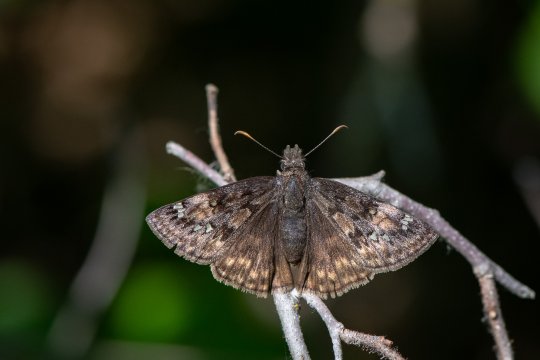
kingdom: Animalia
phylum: Arthropoda
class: Insecta
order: Lepidoptera
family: Hesperiidae
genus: Gesta
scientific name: Gesta
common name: Juvenal's Duskywing
